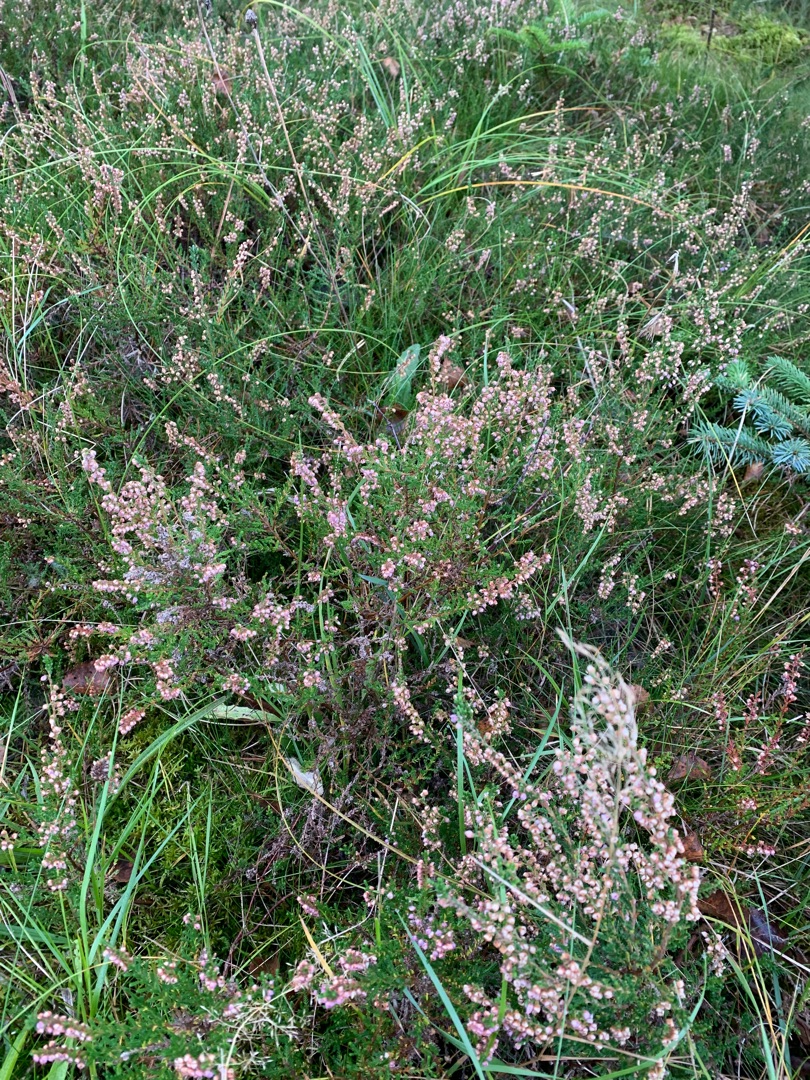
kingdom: Plantae
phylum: Tracheophyta
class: Magnoliopsida
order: Ericales
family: Ericaceae
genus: Calluna
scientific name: Calluna vulgaris
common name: Hedelyng
